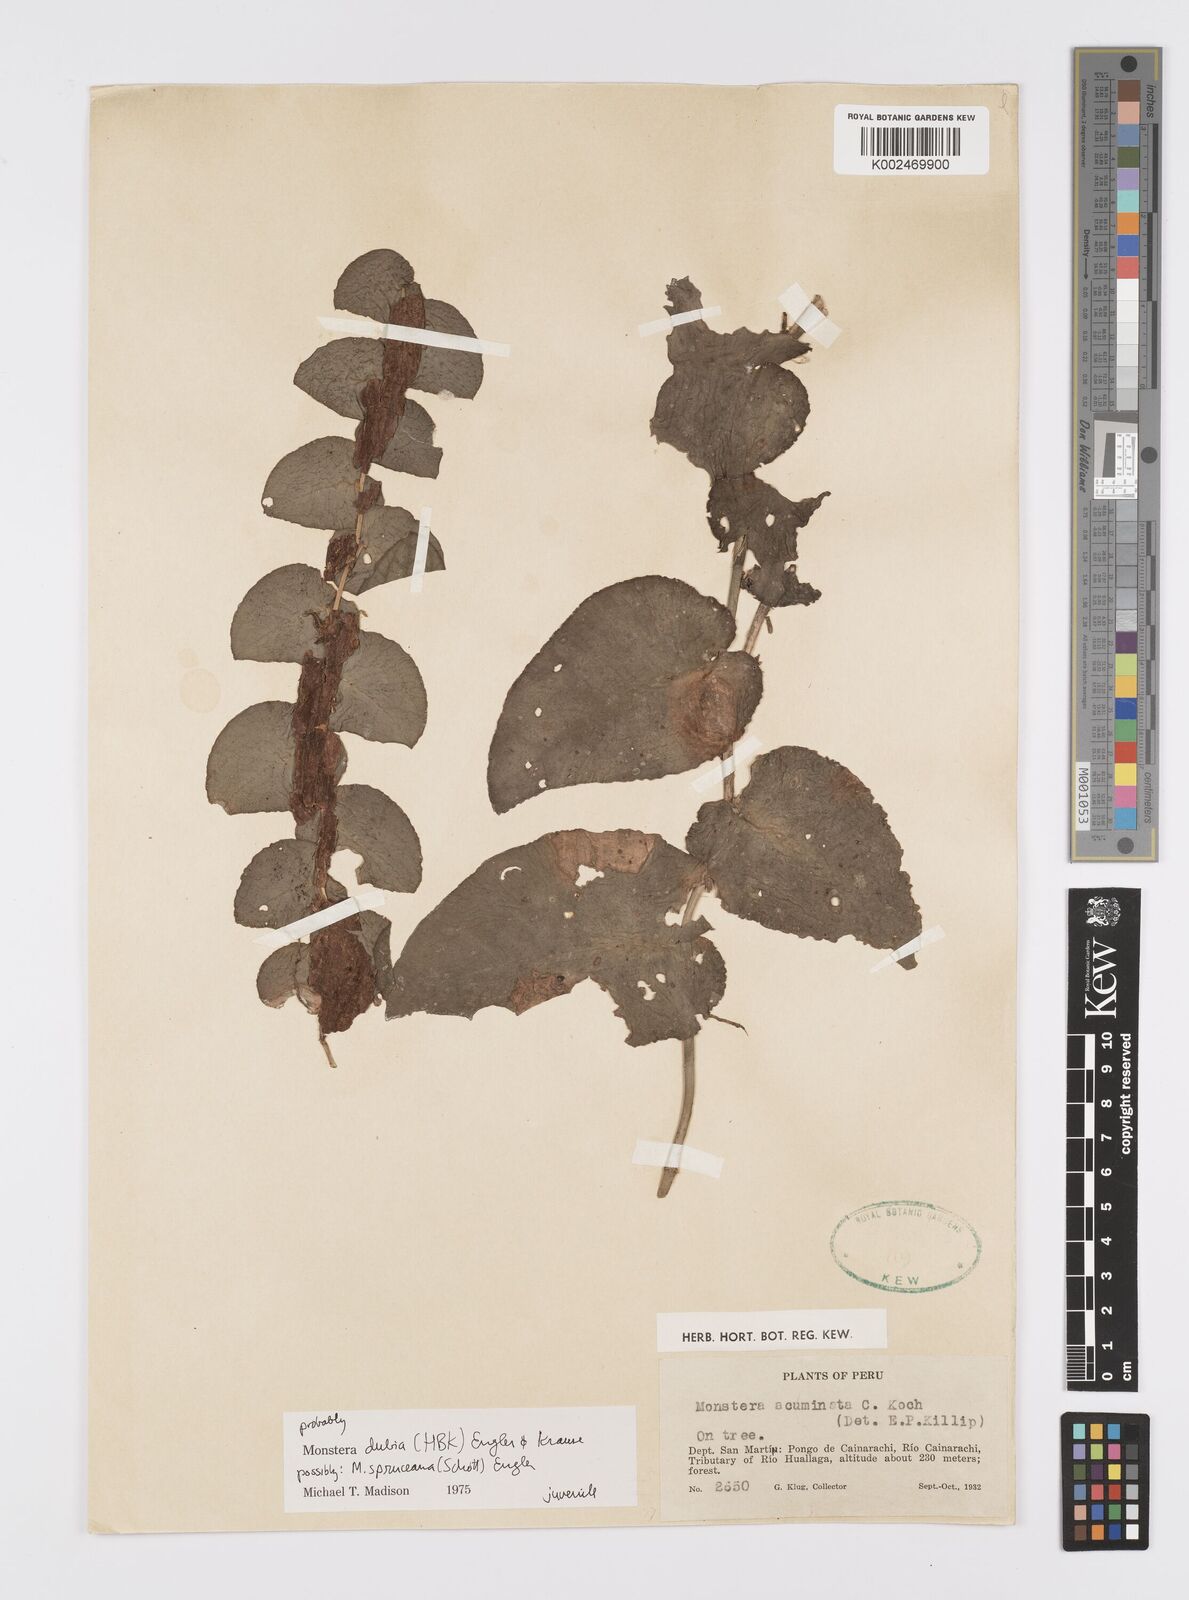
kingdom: Plantae
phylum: Tracheophyta
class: Liliopsida
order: Alismatales
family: Araceae
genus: Monstera
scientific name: Monstera dubia
